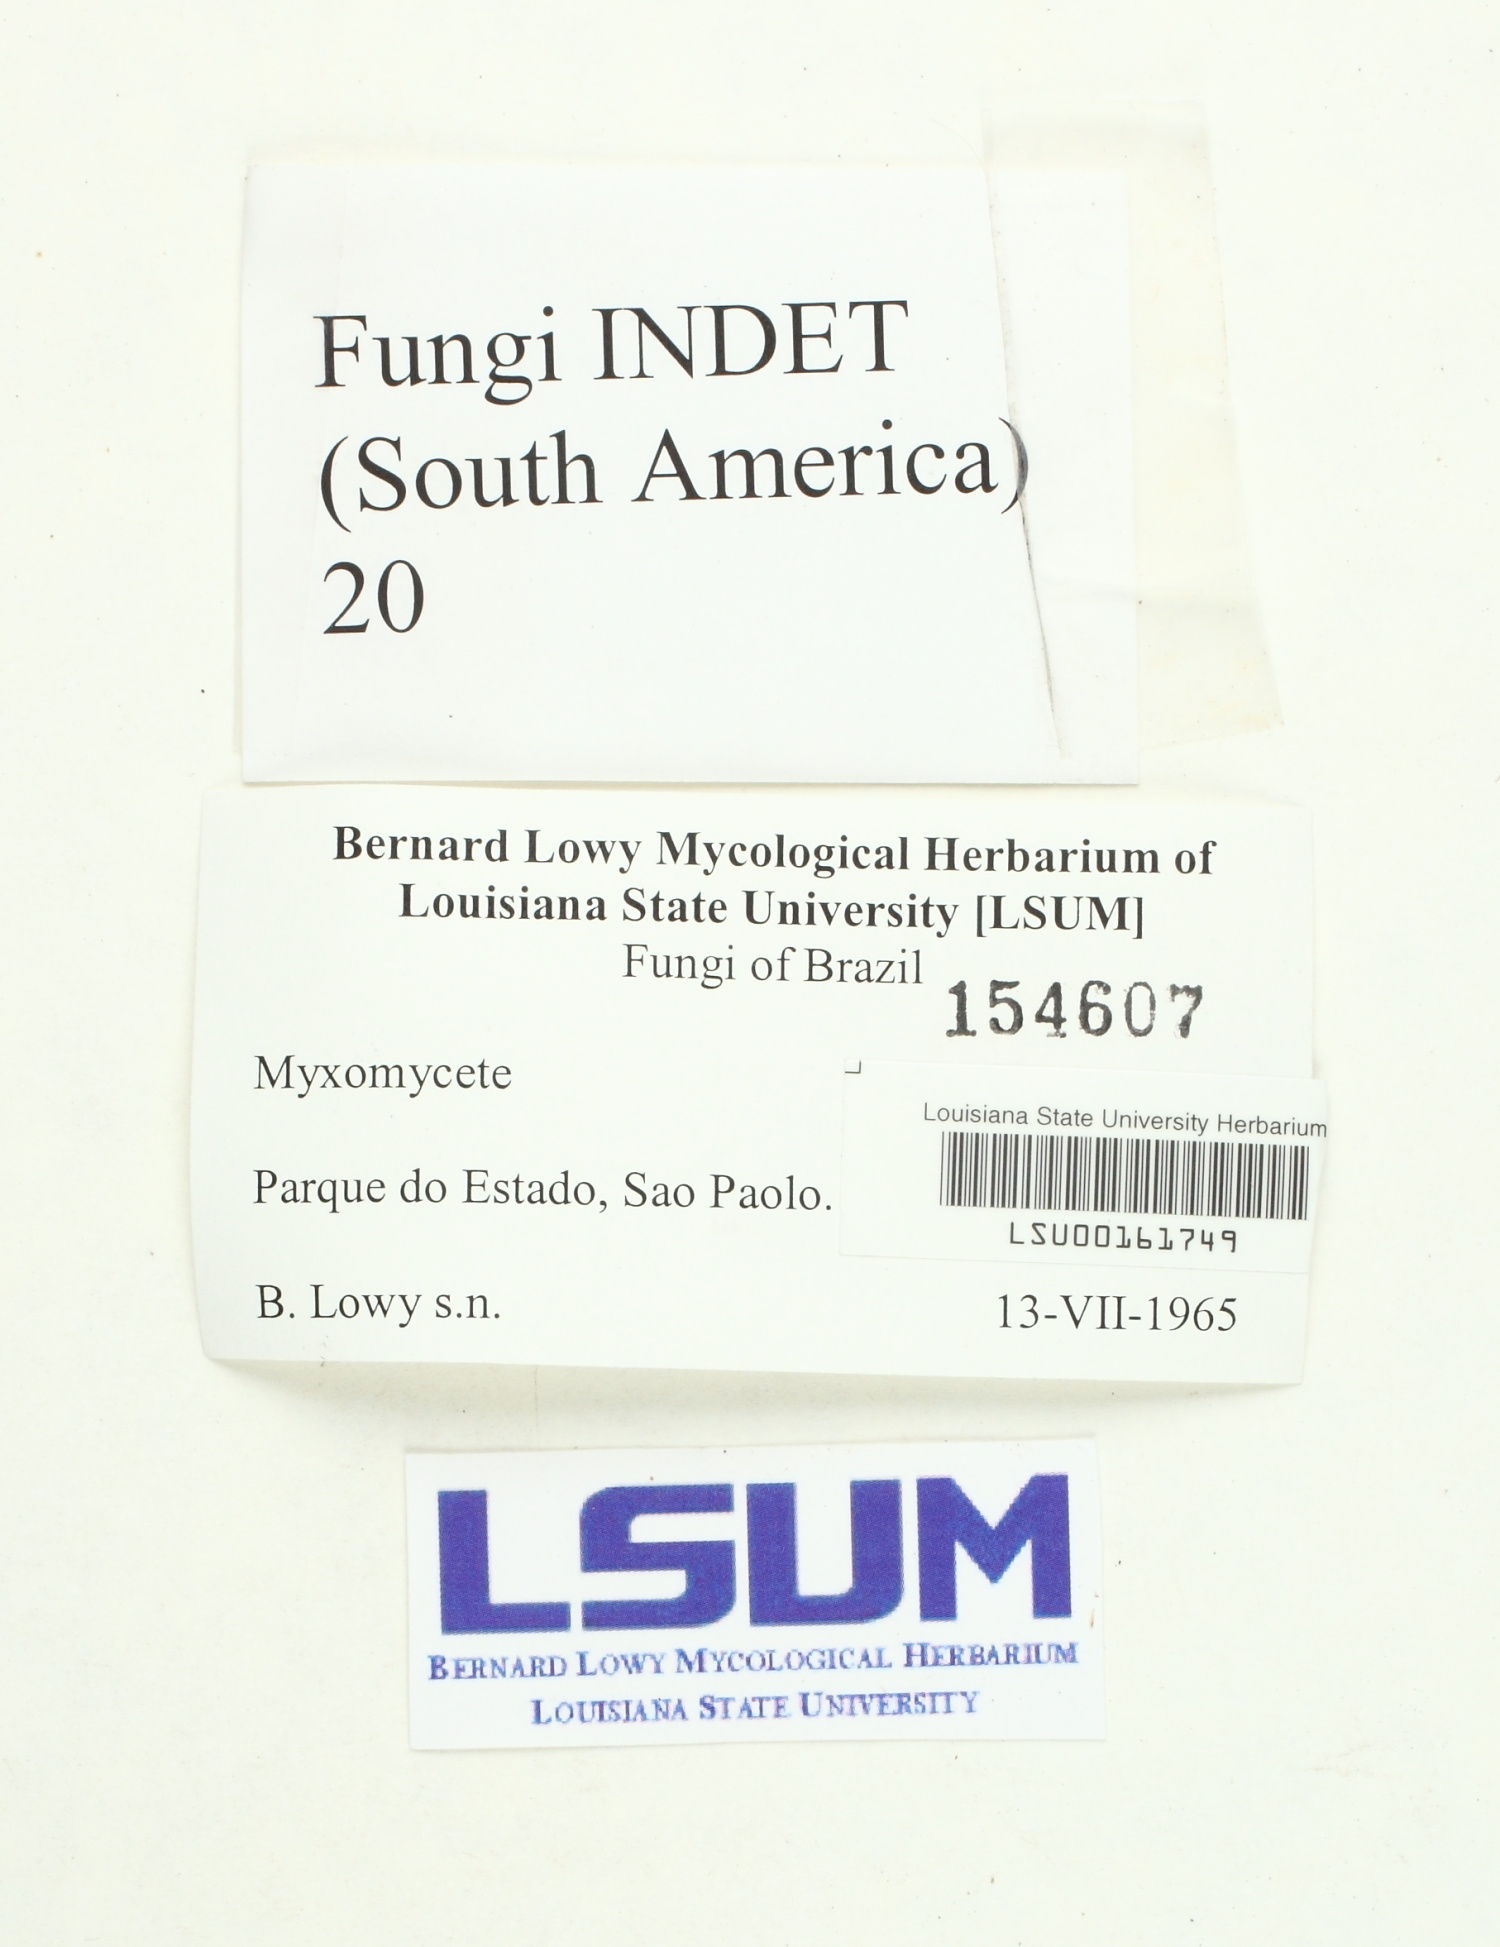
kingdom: Fungi
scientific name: Fungi
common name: Fungi
